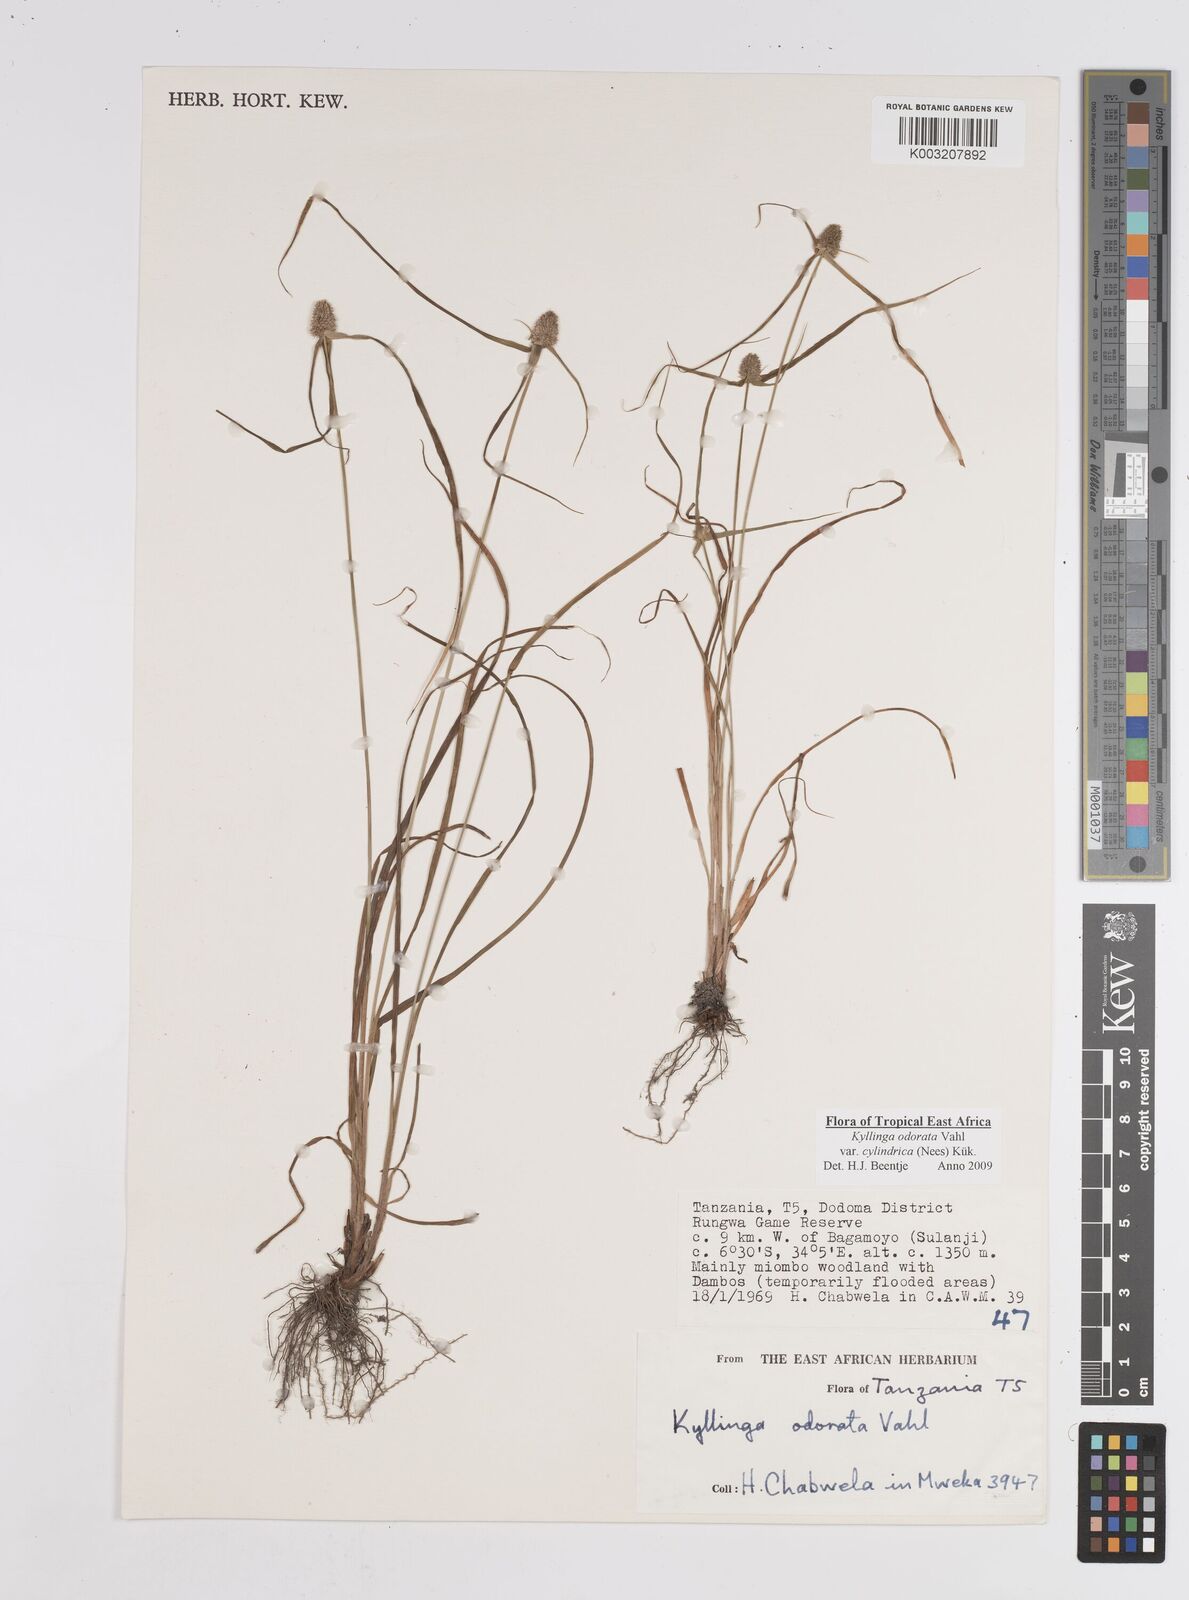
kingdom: Plantae
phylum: Tracheophyta
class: Liliopsida
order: Poales
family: Cyperaceae
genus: Cyperus
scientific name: Cyperus
